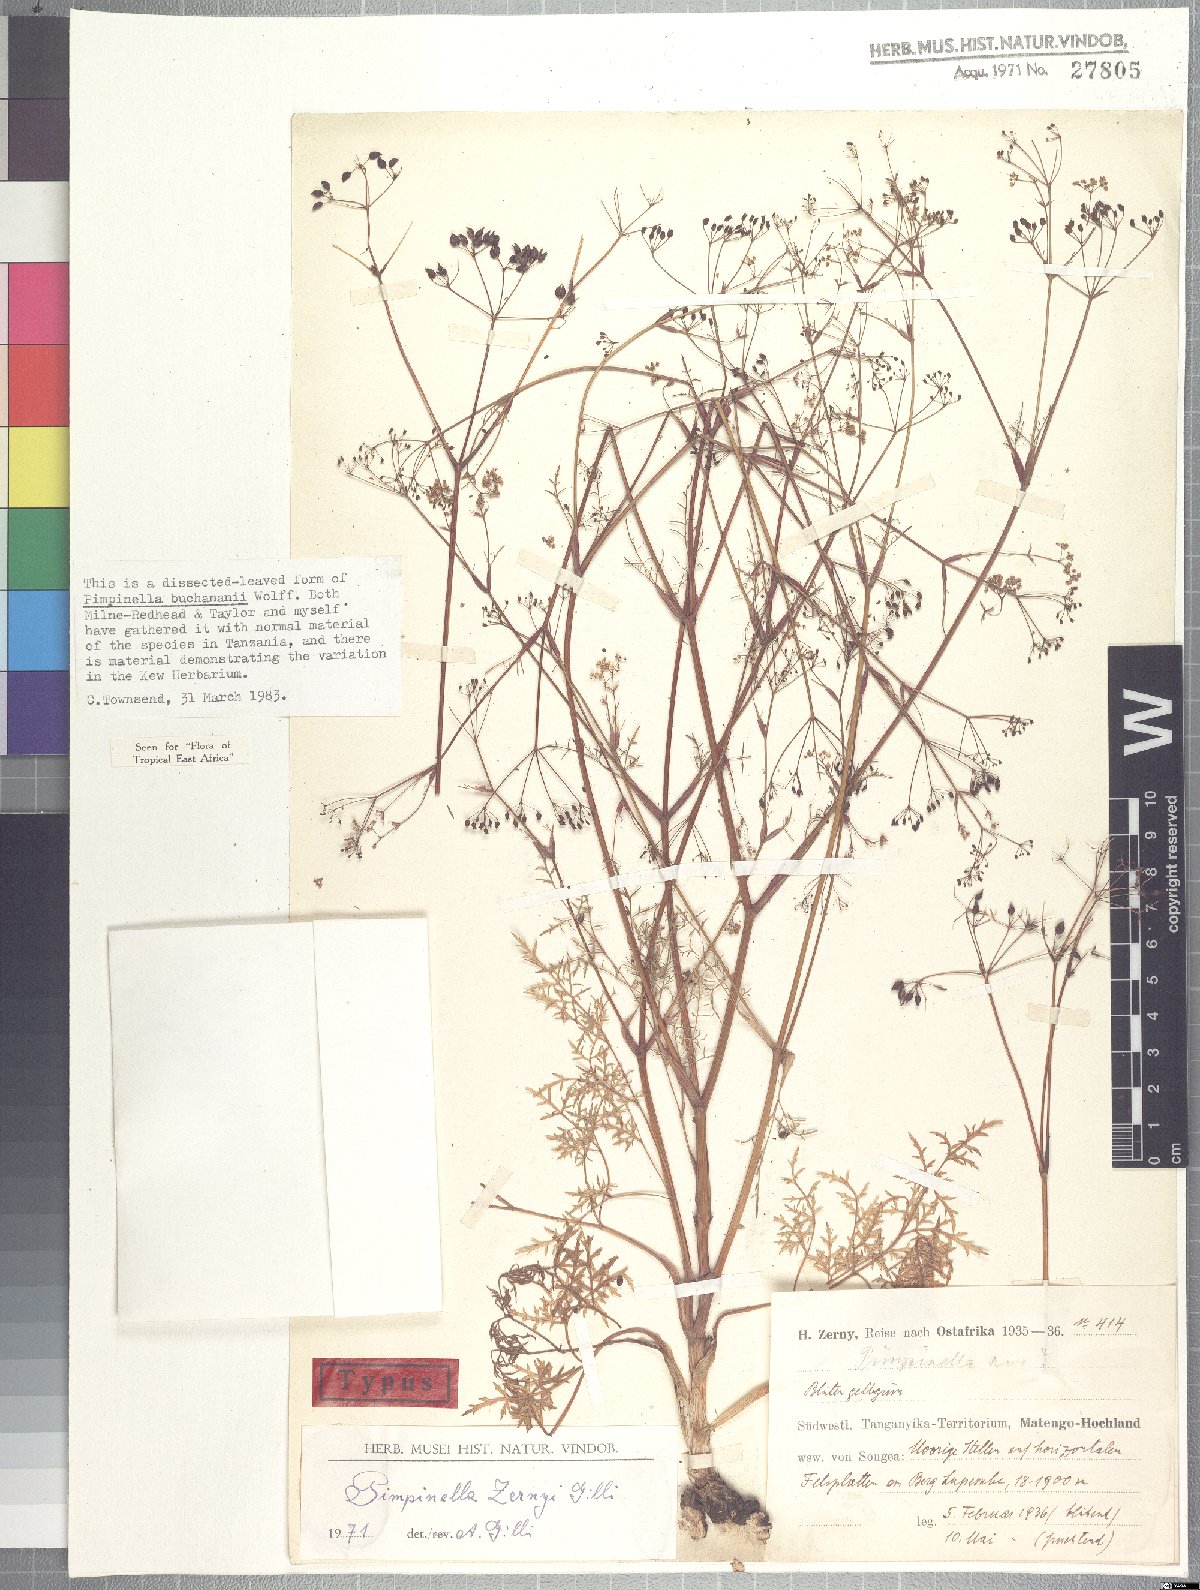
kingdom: Plantae
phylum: Tracheophyta
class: Magnoliopsida
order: Apiales
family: Apiaceae
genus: Pimpinella
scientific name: Pimpinella buchananii
